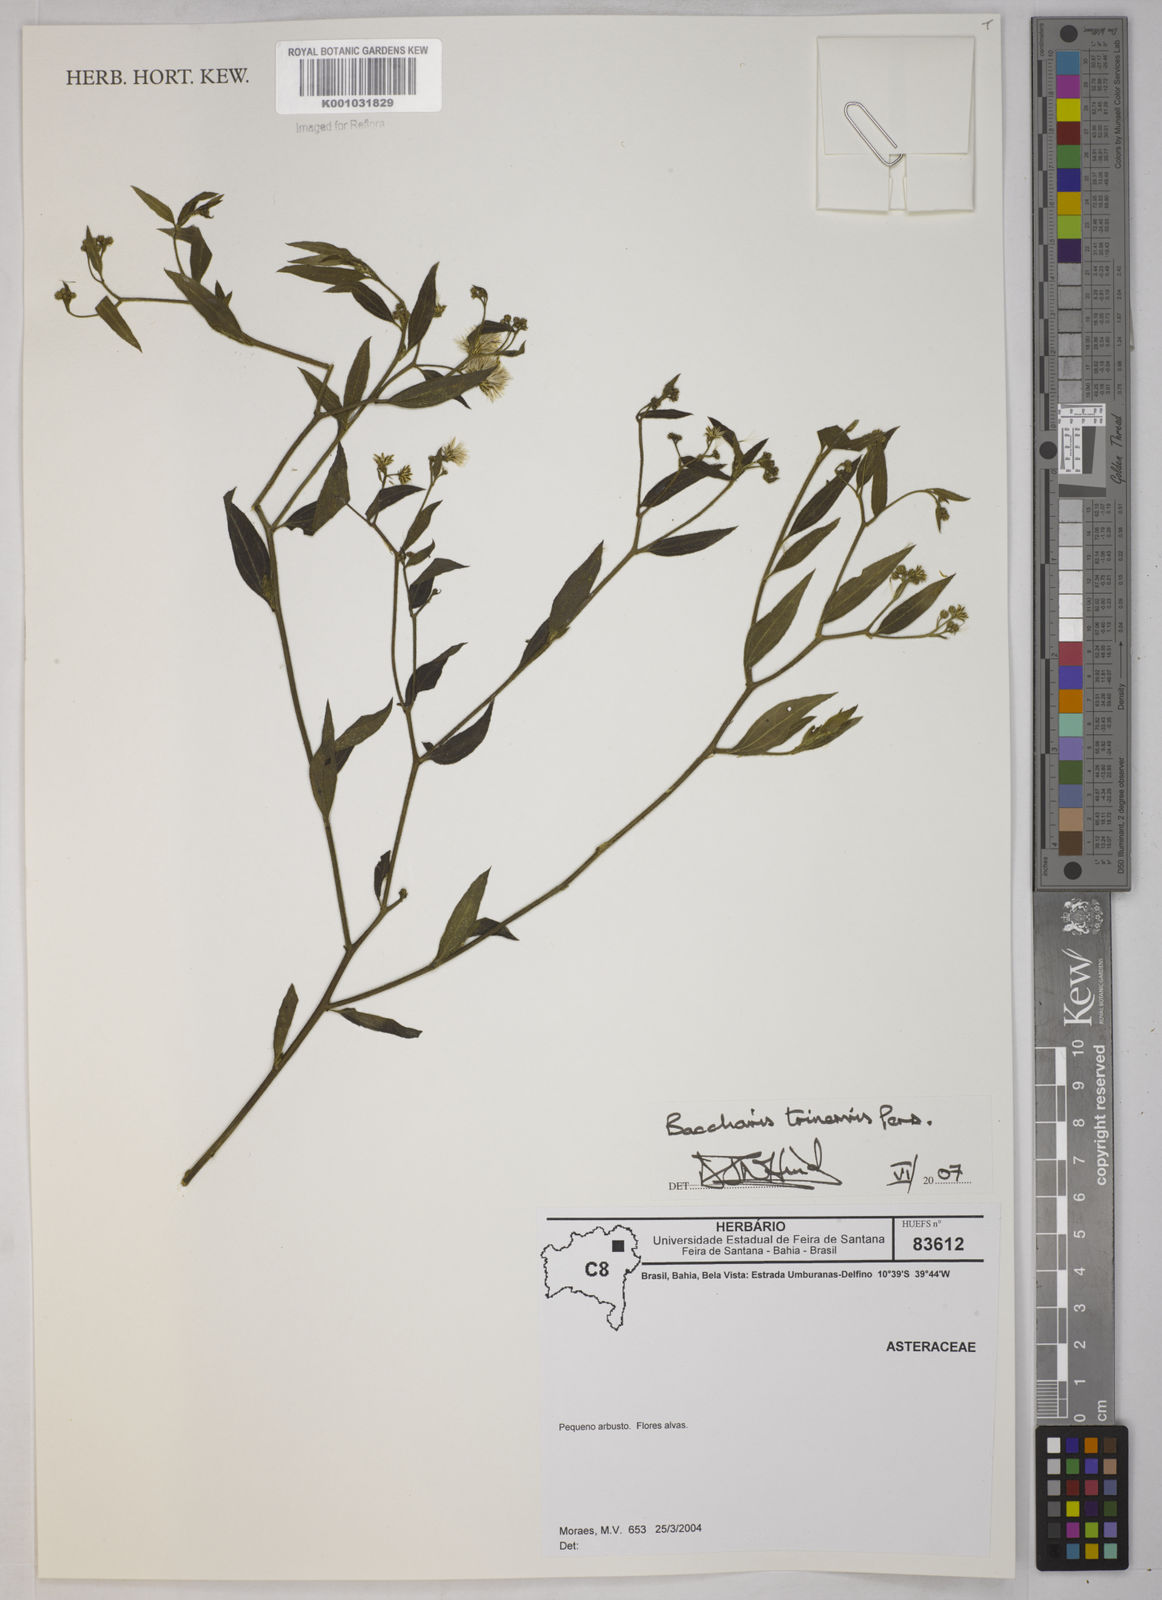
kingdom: Plantae
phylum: Tracheophyta
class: Magnoliopsida
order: Asterales
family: Asteraceae
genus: Baccharis
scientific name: Baccharis trinervis
